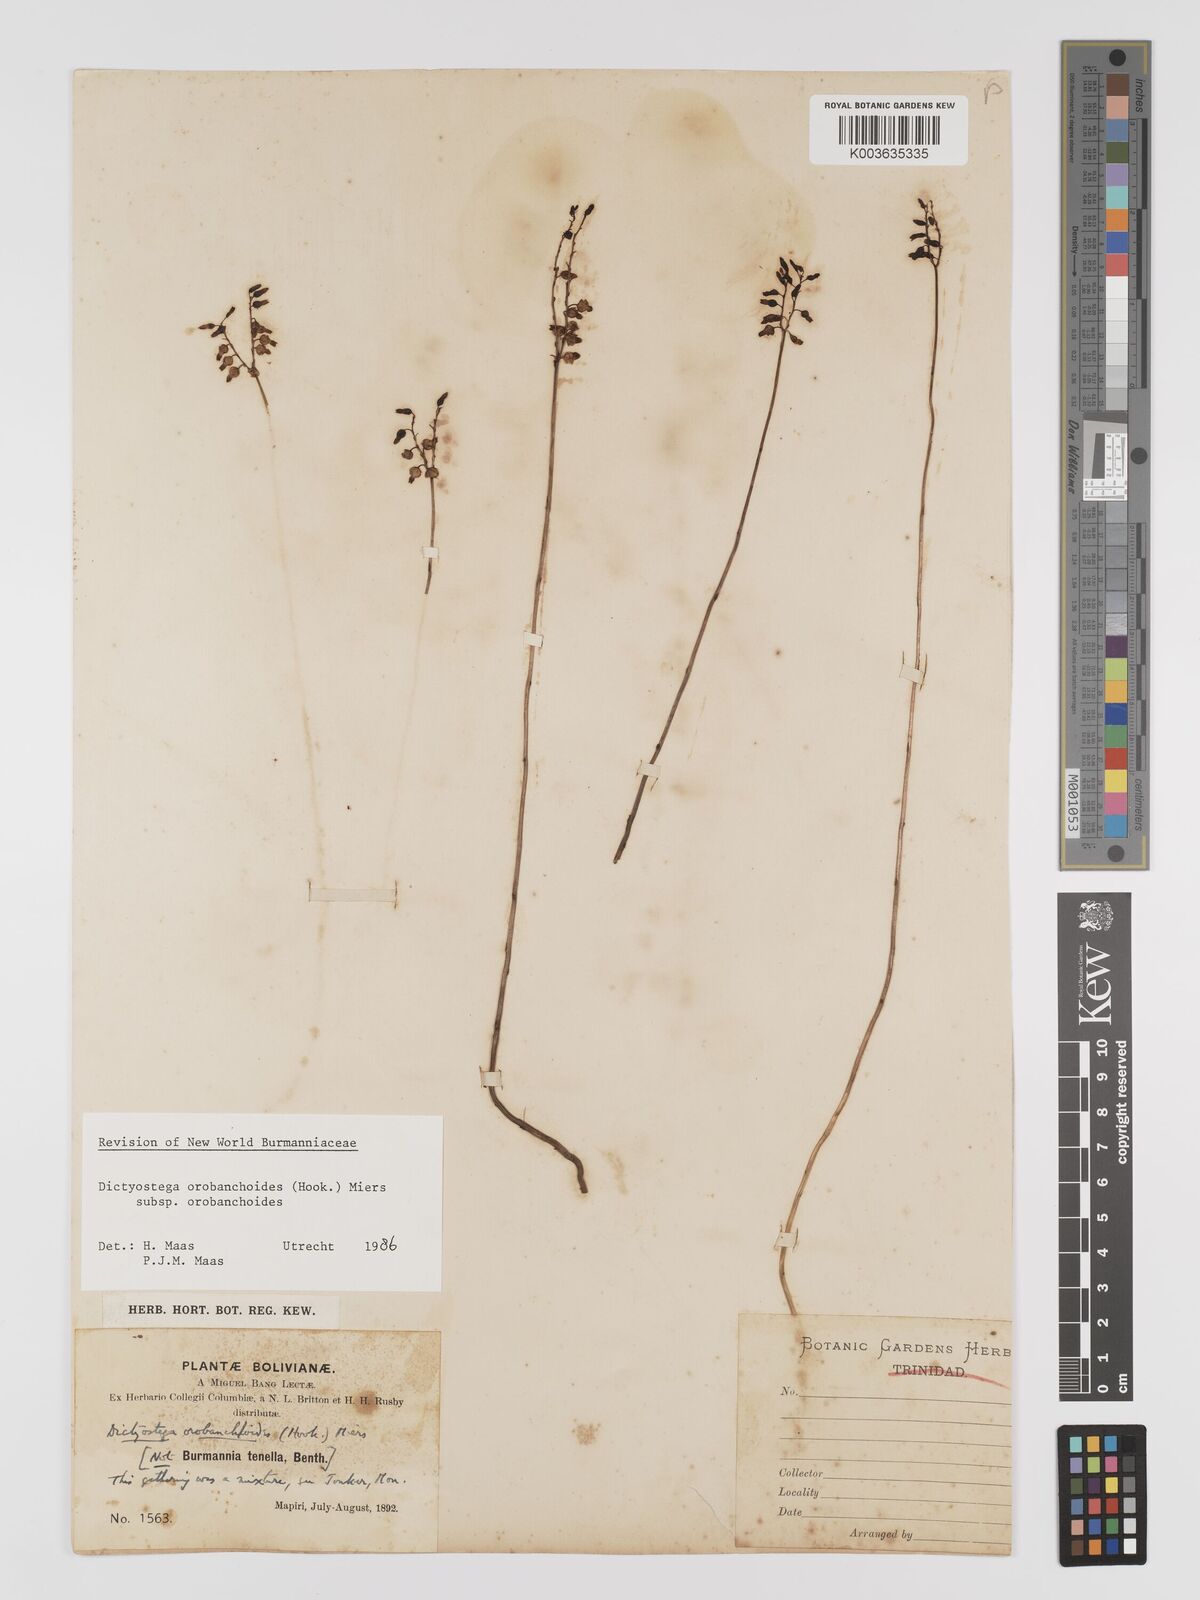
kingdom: Plantae
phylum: Tracheophyta
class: Liliopsida
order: Dioscoreales
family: Burmanniaceae
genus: Dictyostega
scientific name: Dictyostega orobanchoides
